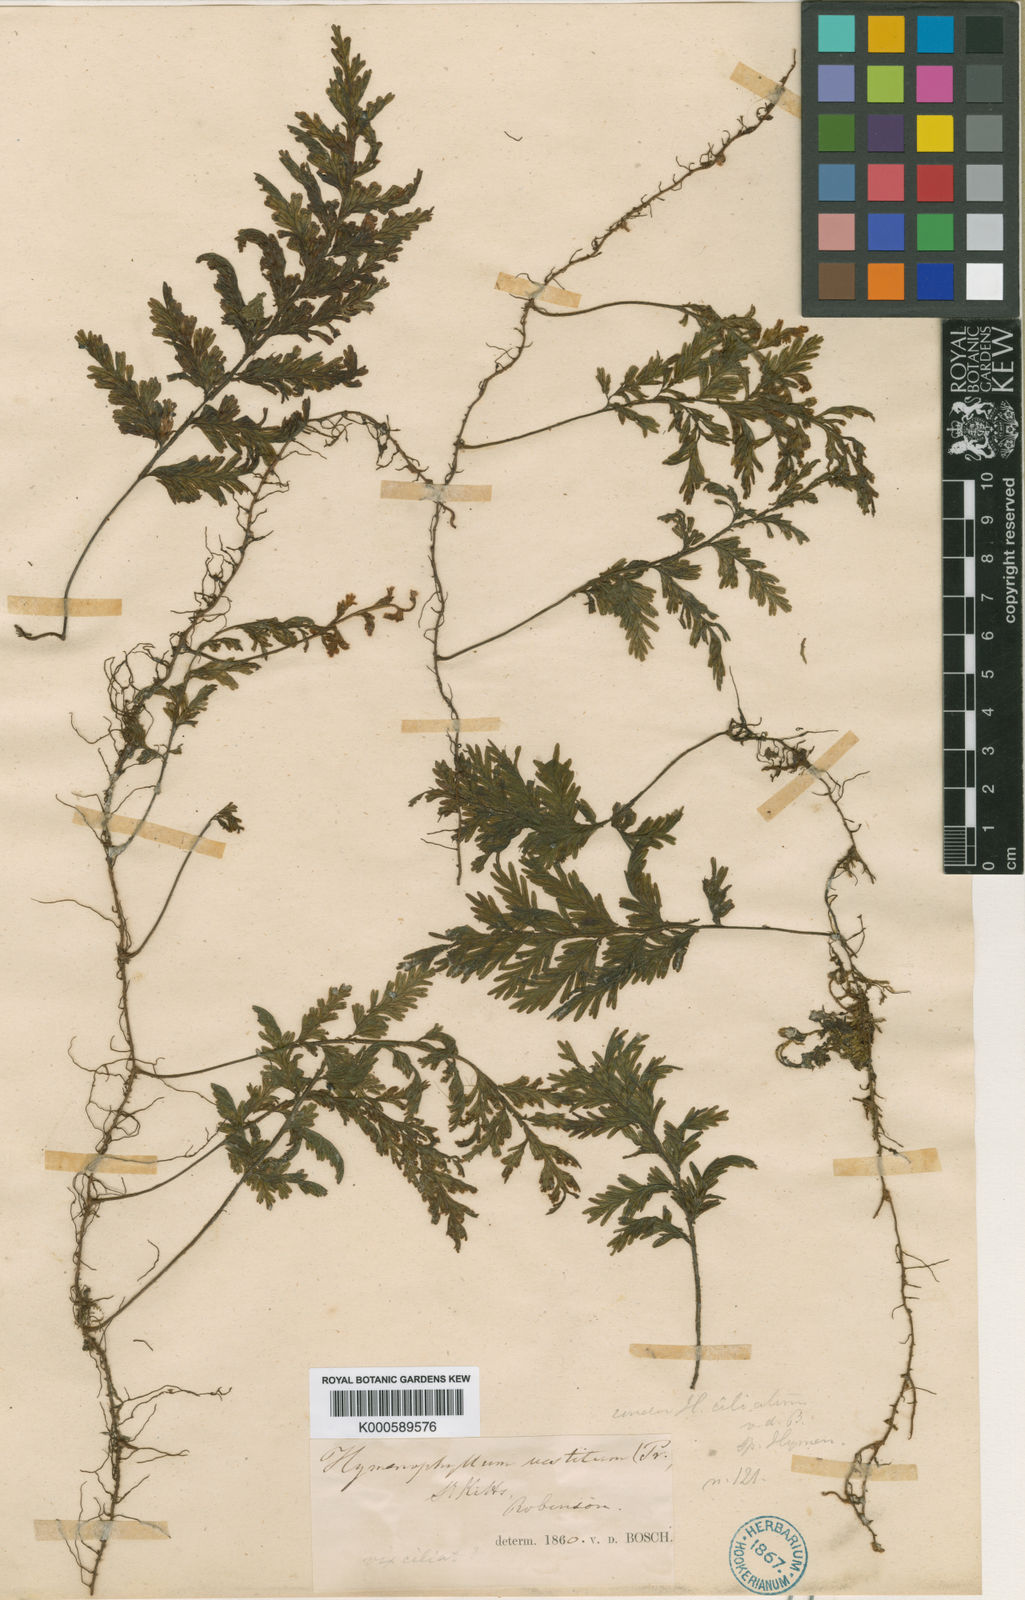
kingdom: Plantae
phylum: Tracheophyta
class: Polypodiopsida
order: Hymenophyllales
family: Hymenophyllaceae
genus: Hymenophyllum
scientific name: Hymenophyllum hirsutum
